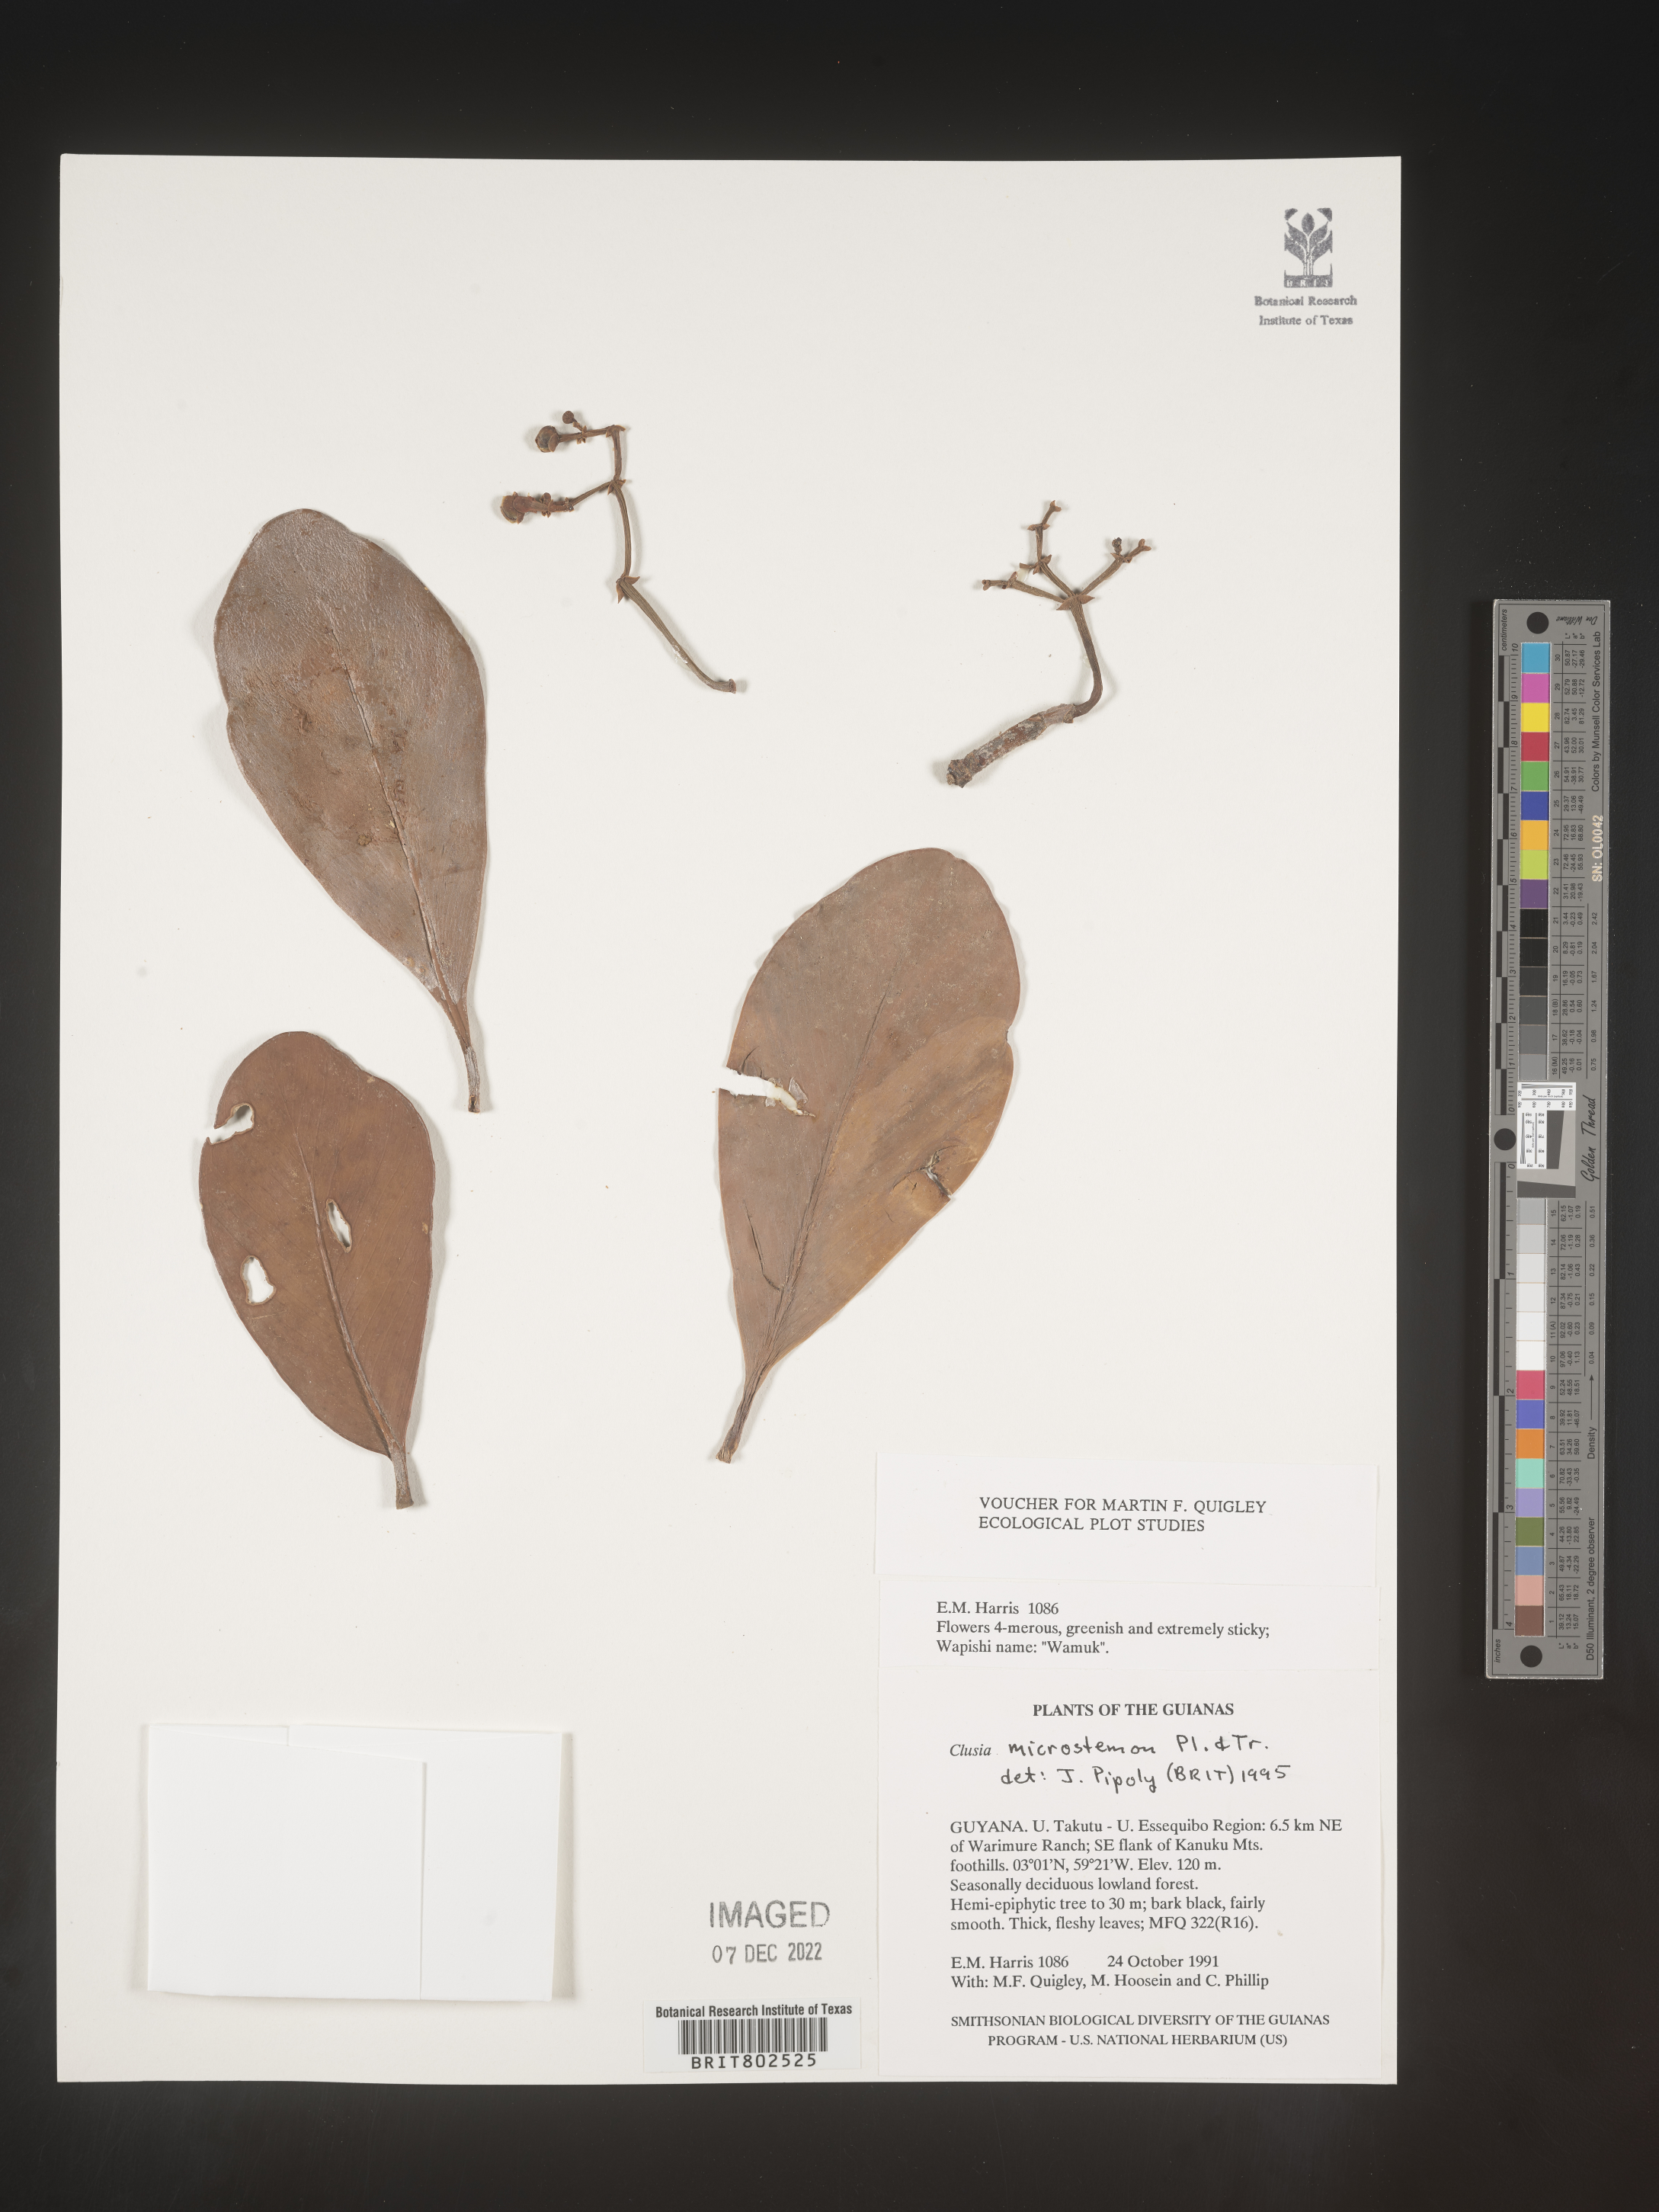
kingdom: Plantae
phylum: Tracheophyta
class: Magnoliopsida
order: Malpighiales
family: Clusiaceae
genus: Clusia
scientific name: Clusia microstemon
